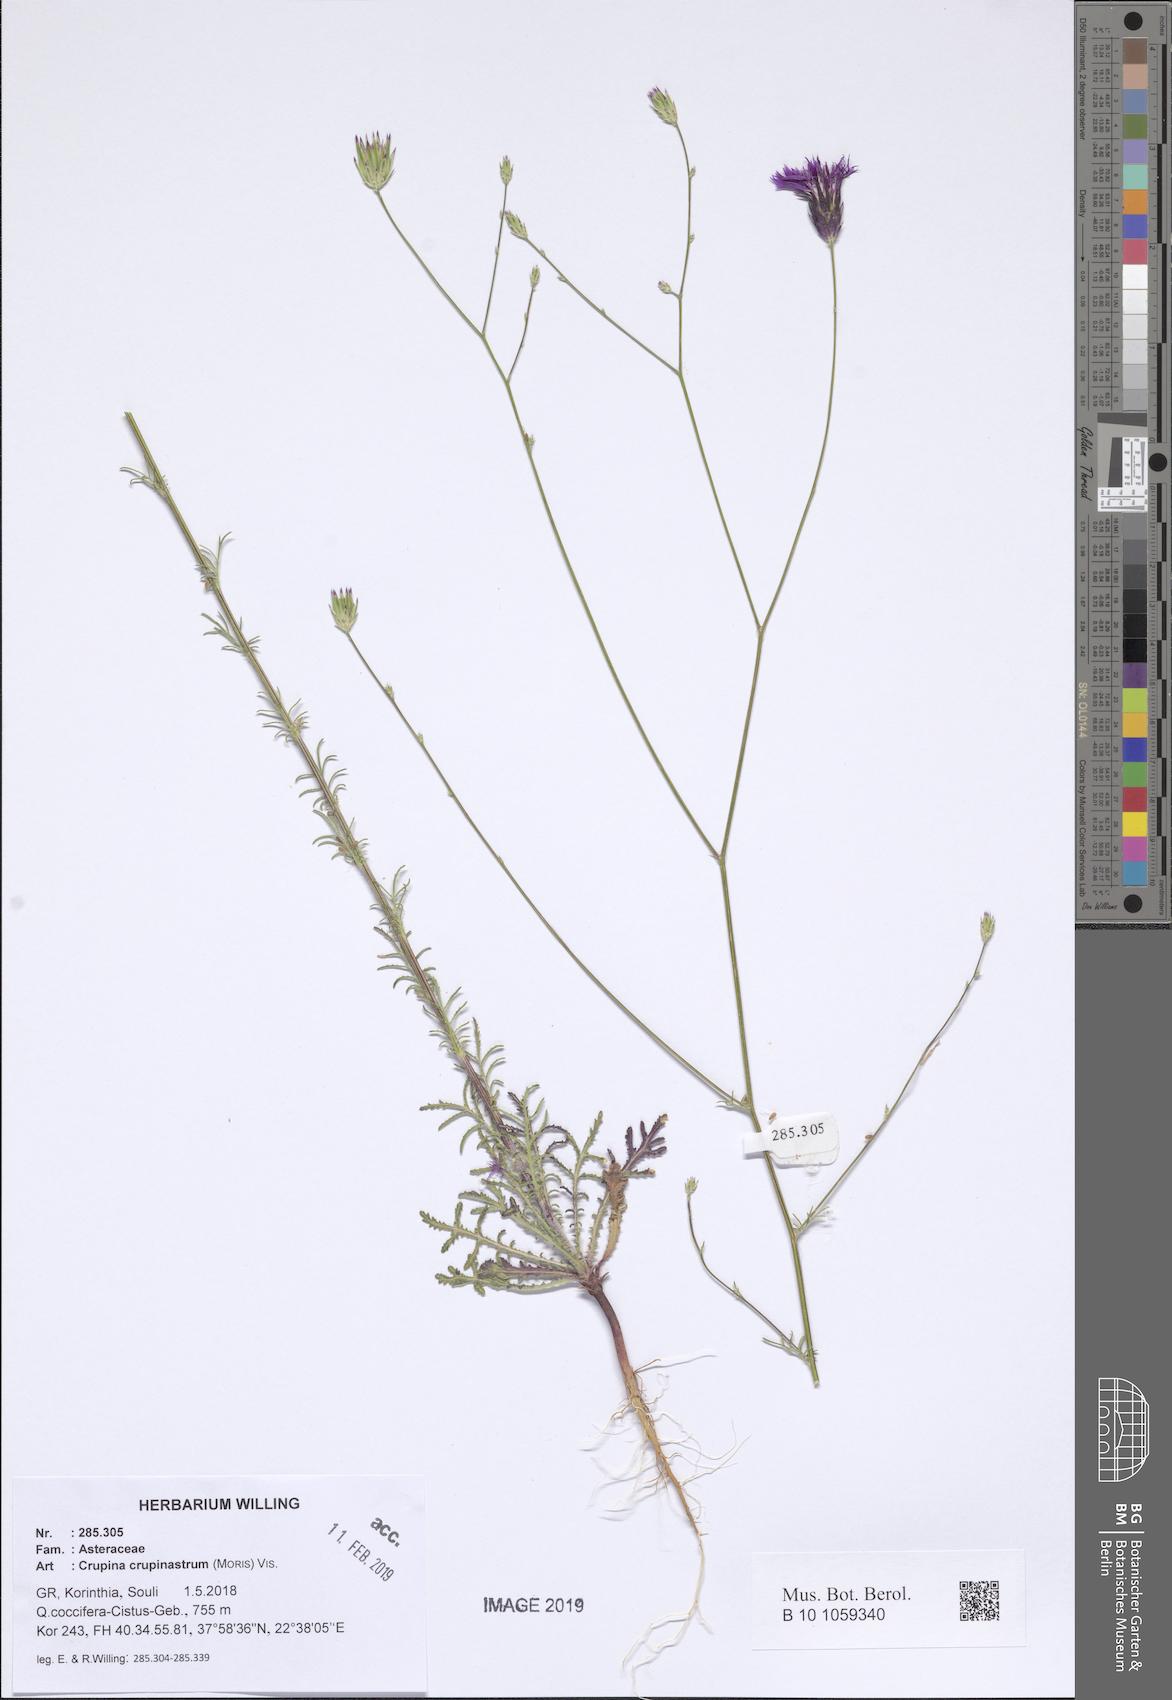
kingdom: Plantae
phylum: Tracheophyta
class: Magnoliopsida
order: Asterales
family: Asteraceae
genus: Crupina
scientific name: Crupina crupinastrum
